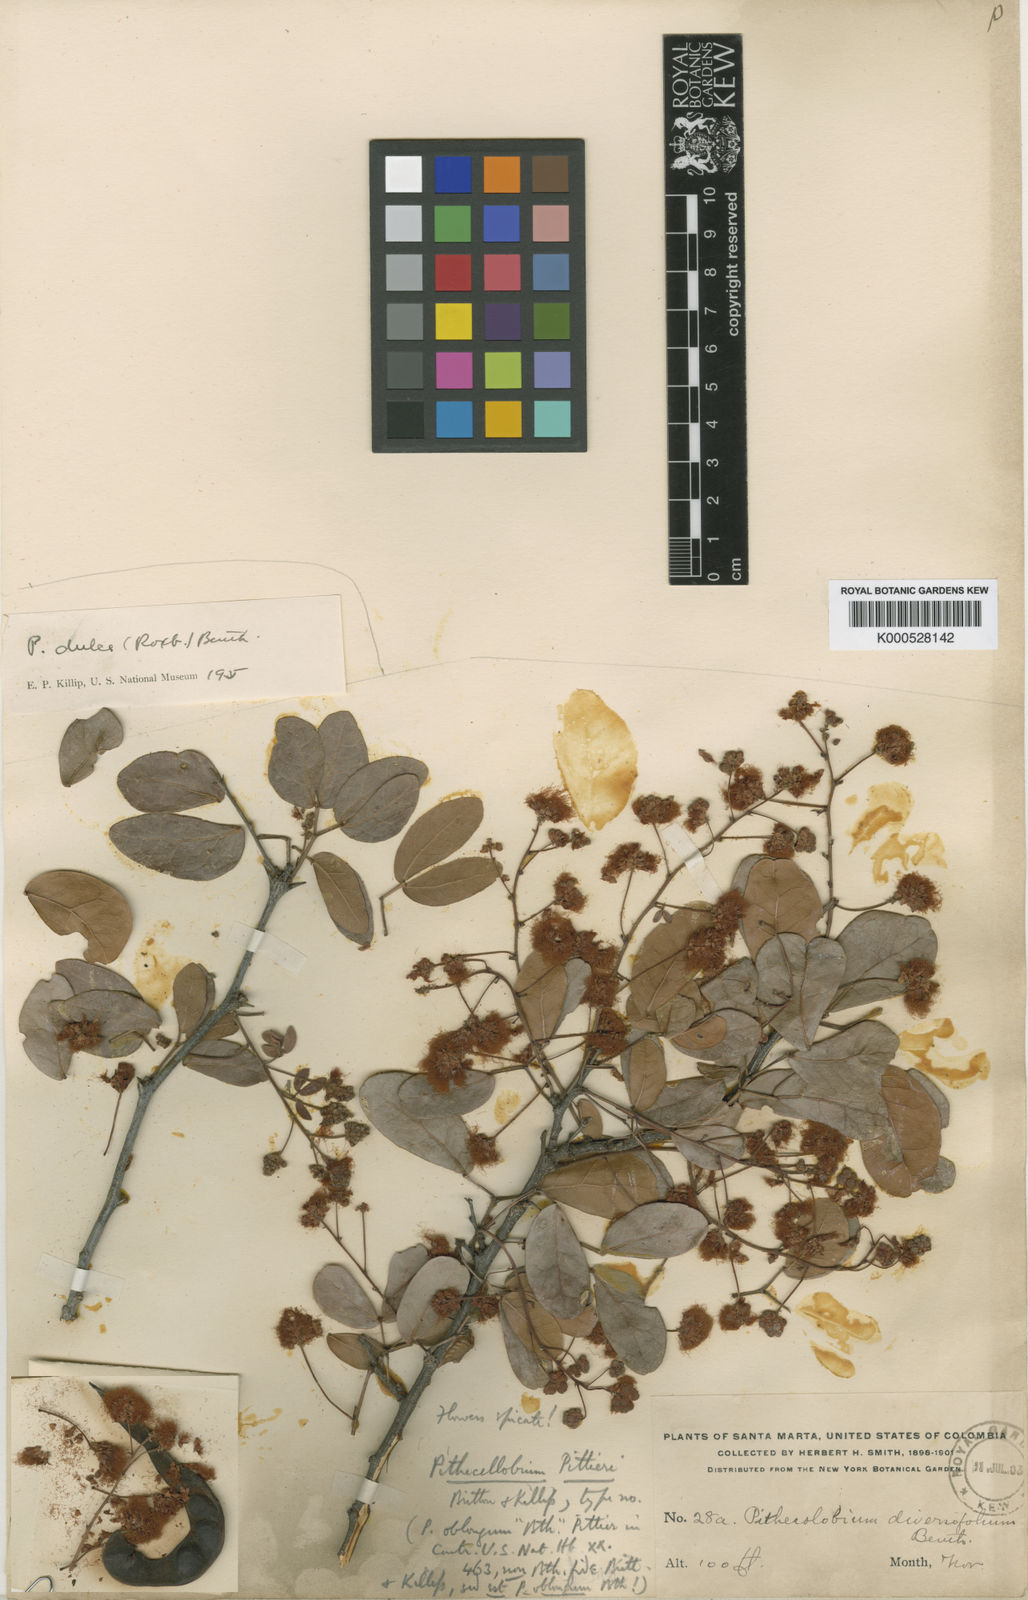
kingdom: Plantae
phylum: Tracheophyta
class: Magnoliopsida
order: Fabales
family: Fabaceae
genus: Pithecellobium
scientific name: Pithecellobium oblongum
